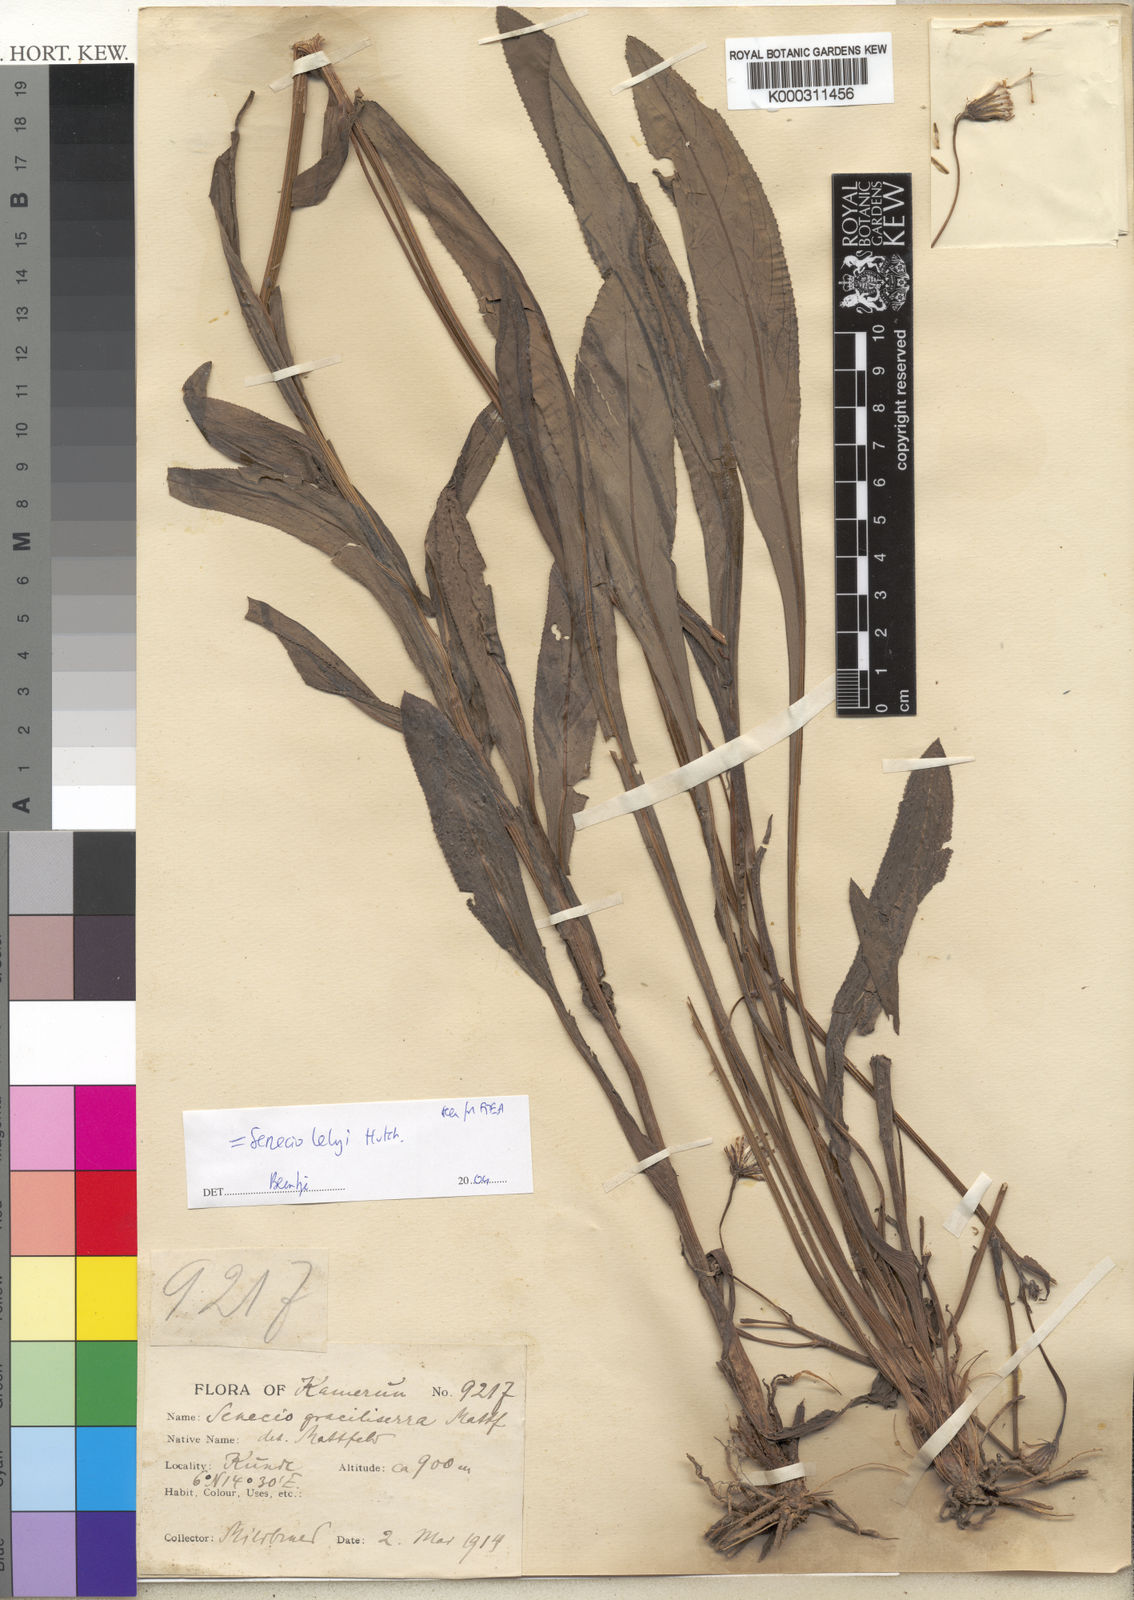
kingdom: Plantae
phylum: Tracheophyta
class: Magnoliopsida
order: Asterales
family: Asteraceae
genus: Senecio
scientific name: Senecio lelyi
